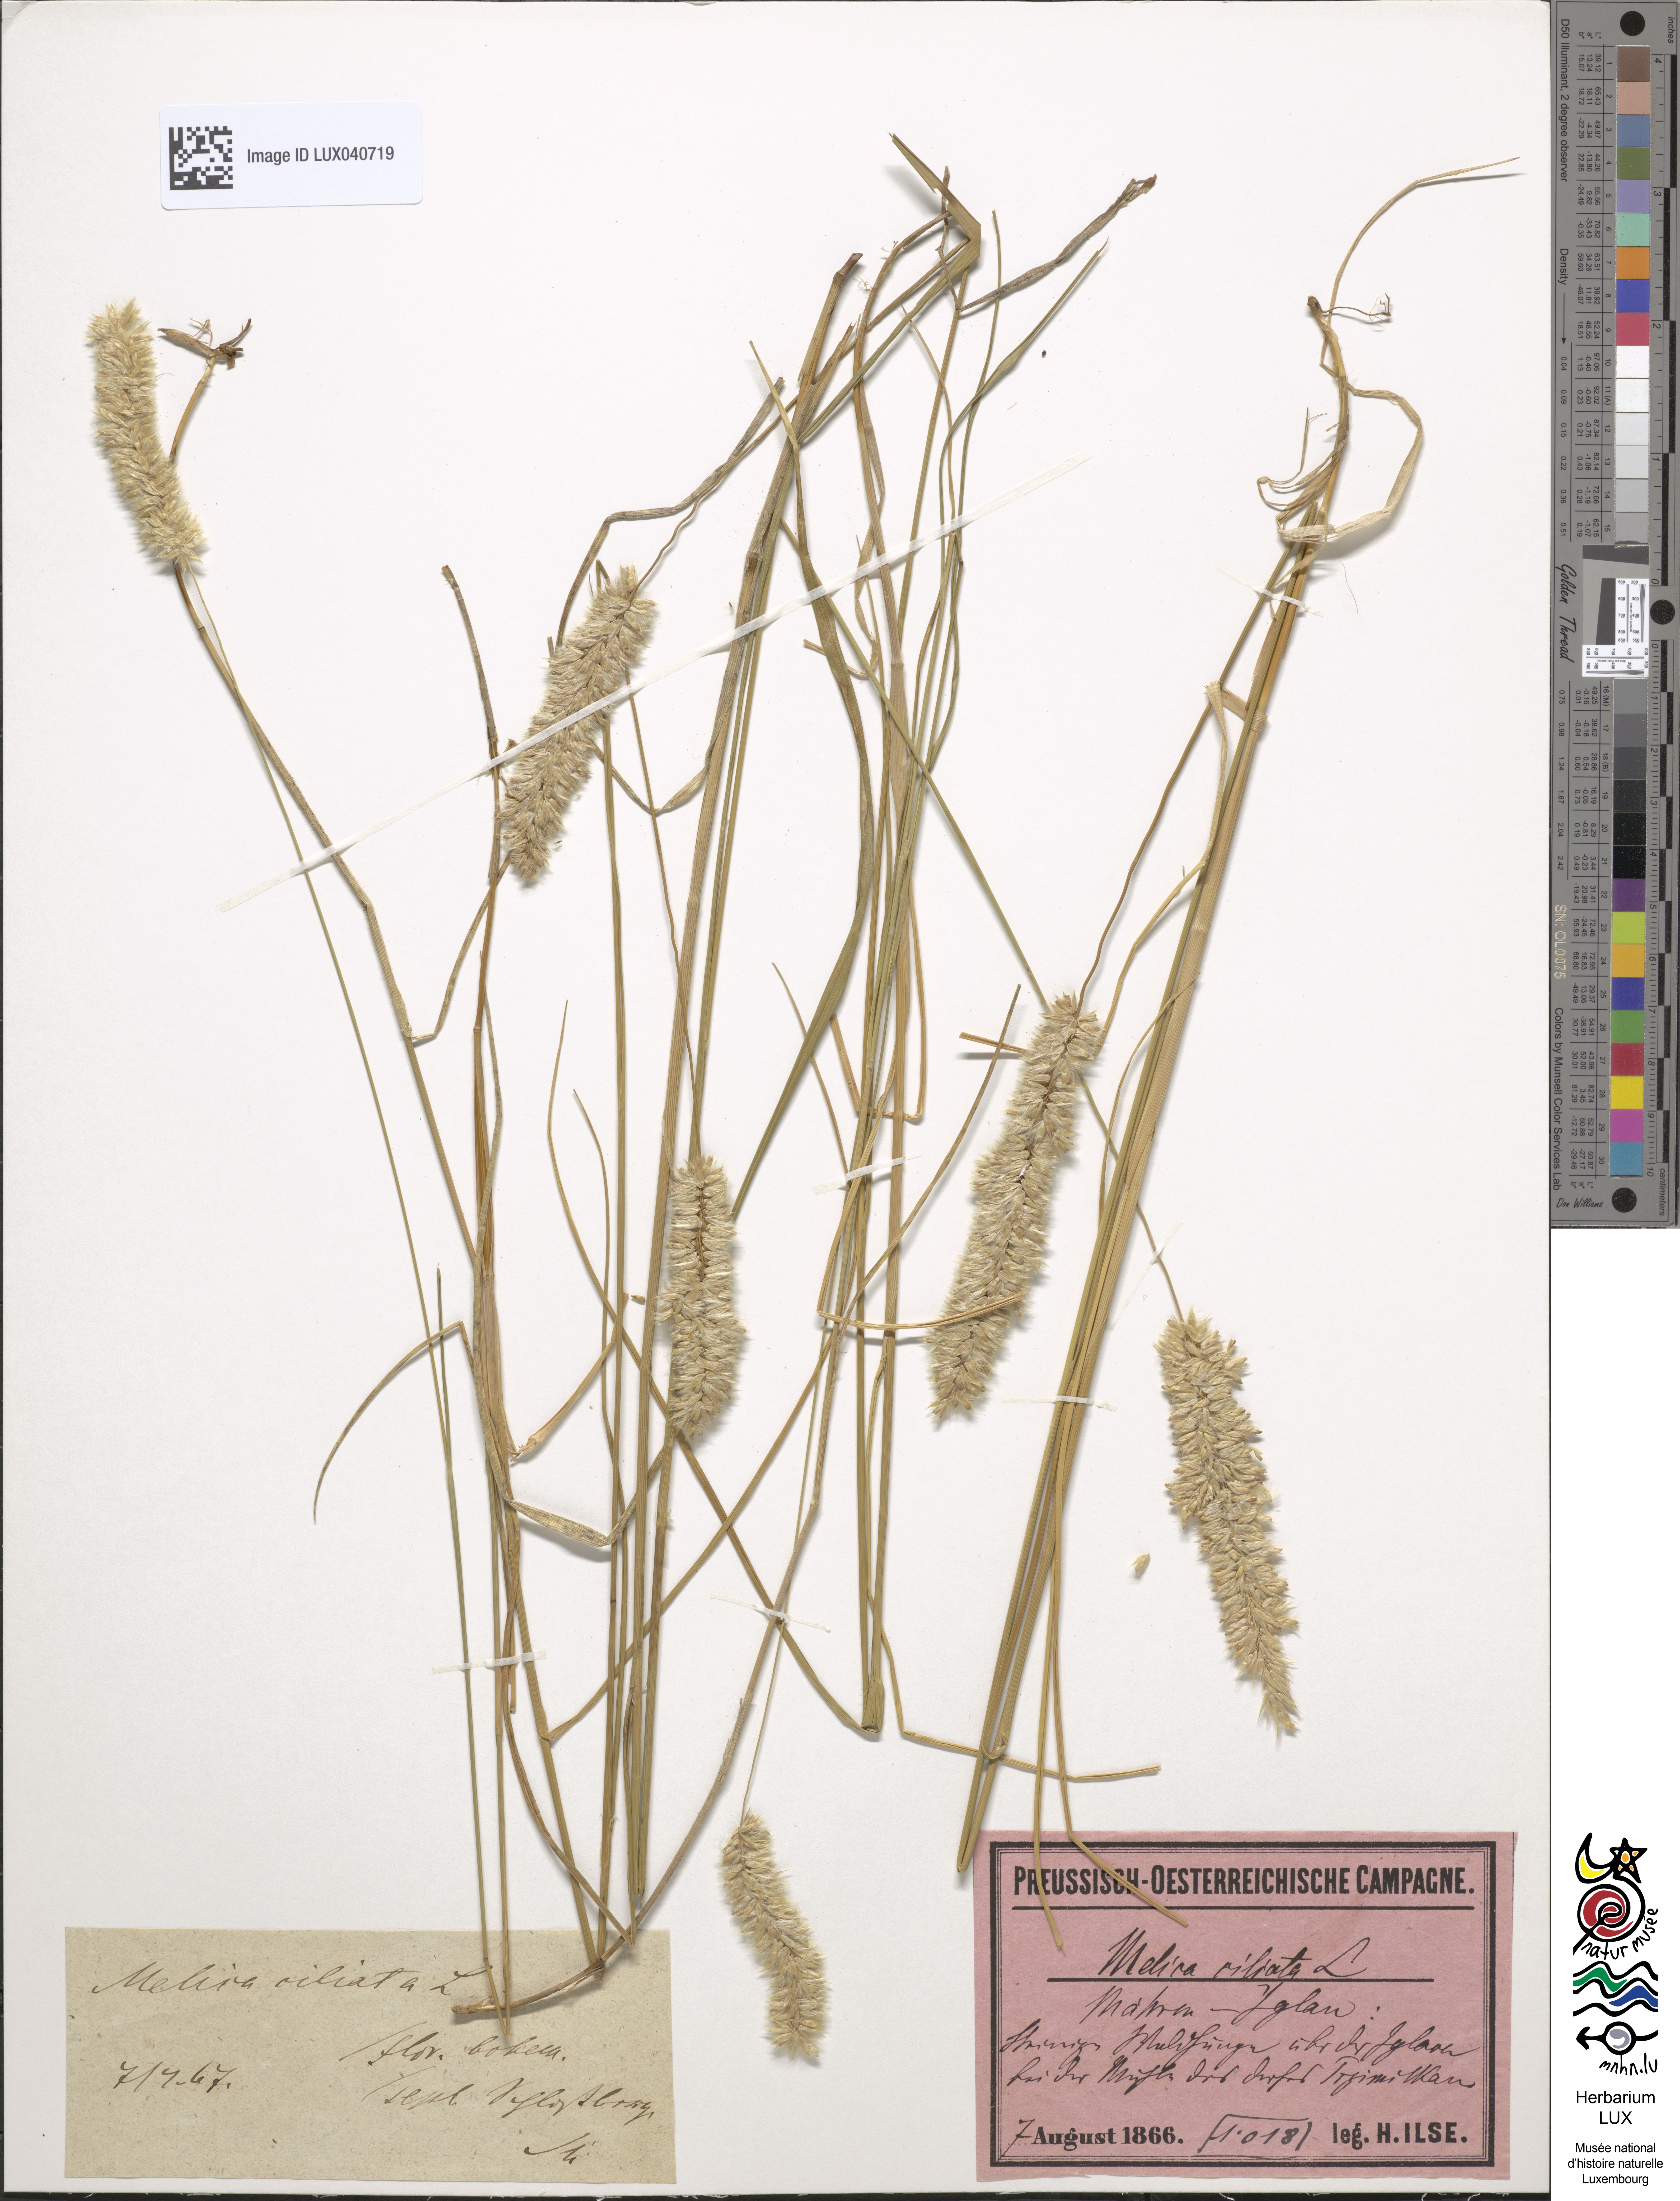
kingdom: Plantae
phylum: Tracheophyta
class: Liliopsida
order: Poales
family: Poaceae
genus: Melica
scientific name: Melica ciliata
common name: Hairy melicgrass
